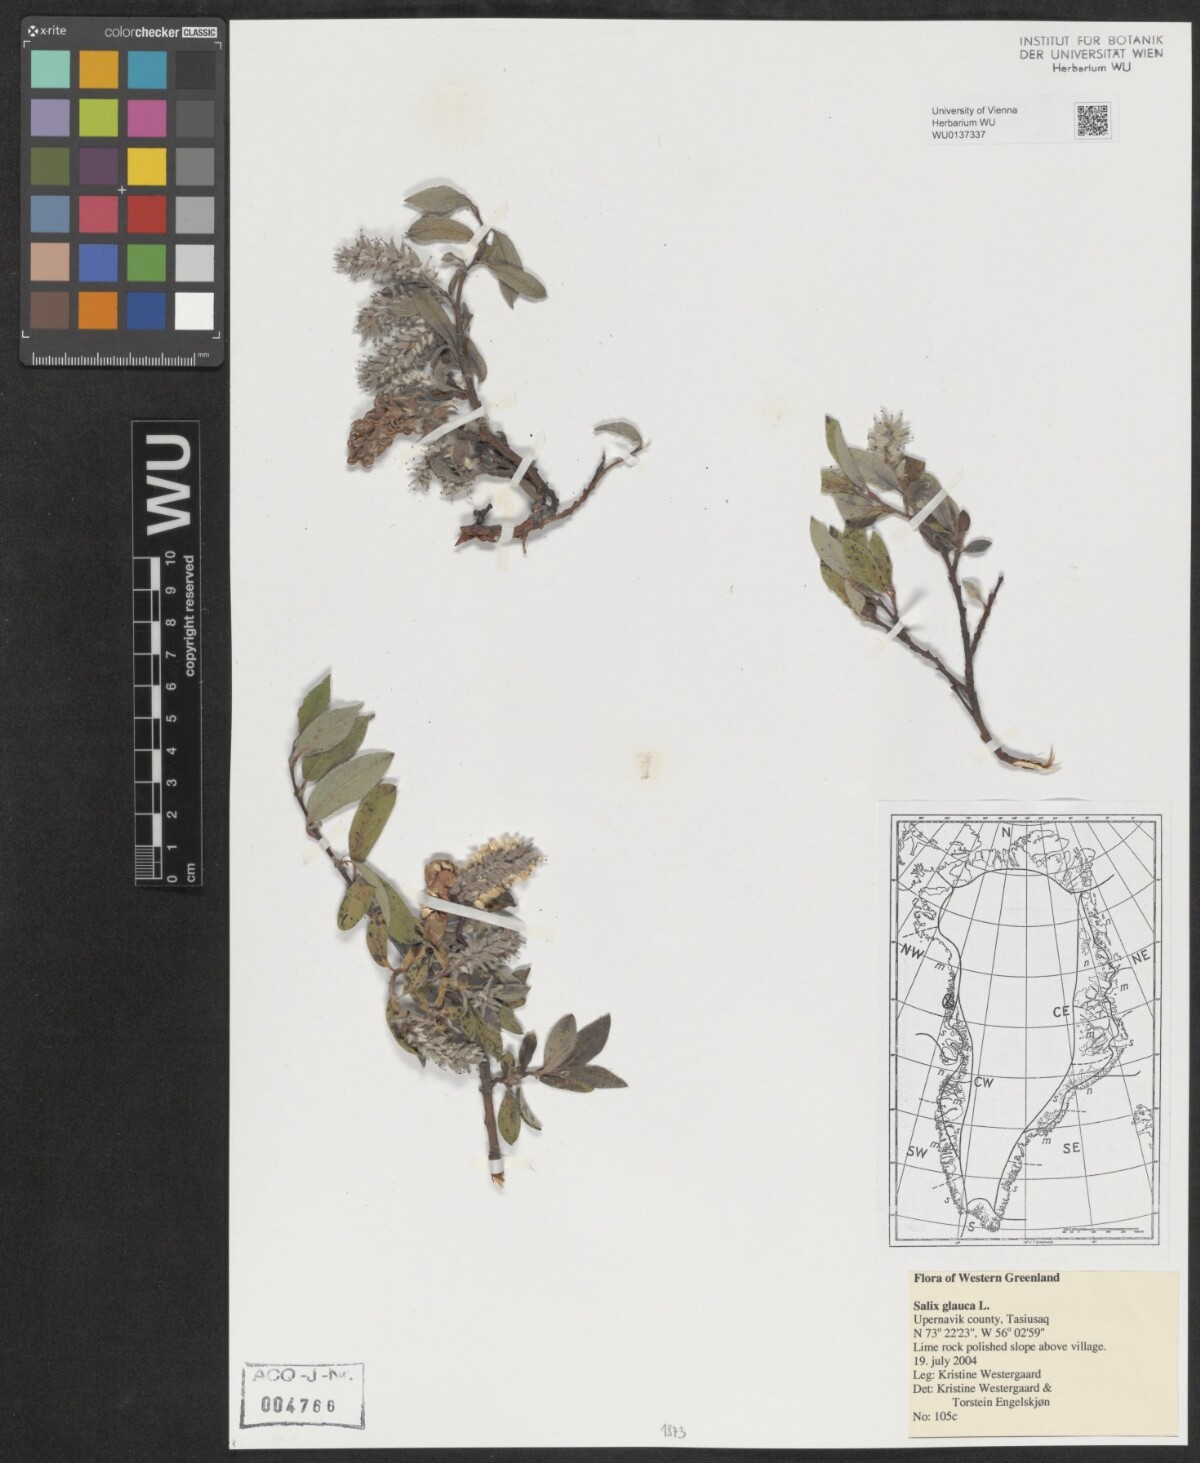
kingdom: Plantae
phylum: Tracheophyta
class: Magnoliopsida
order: Malpighiales
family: Salicaceae
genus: Salix
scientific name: Salix glauca
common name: Glaucous willow
